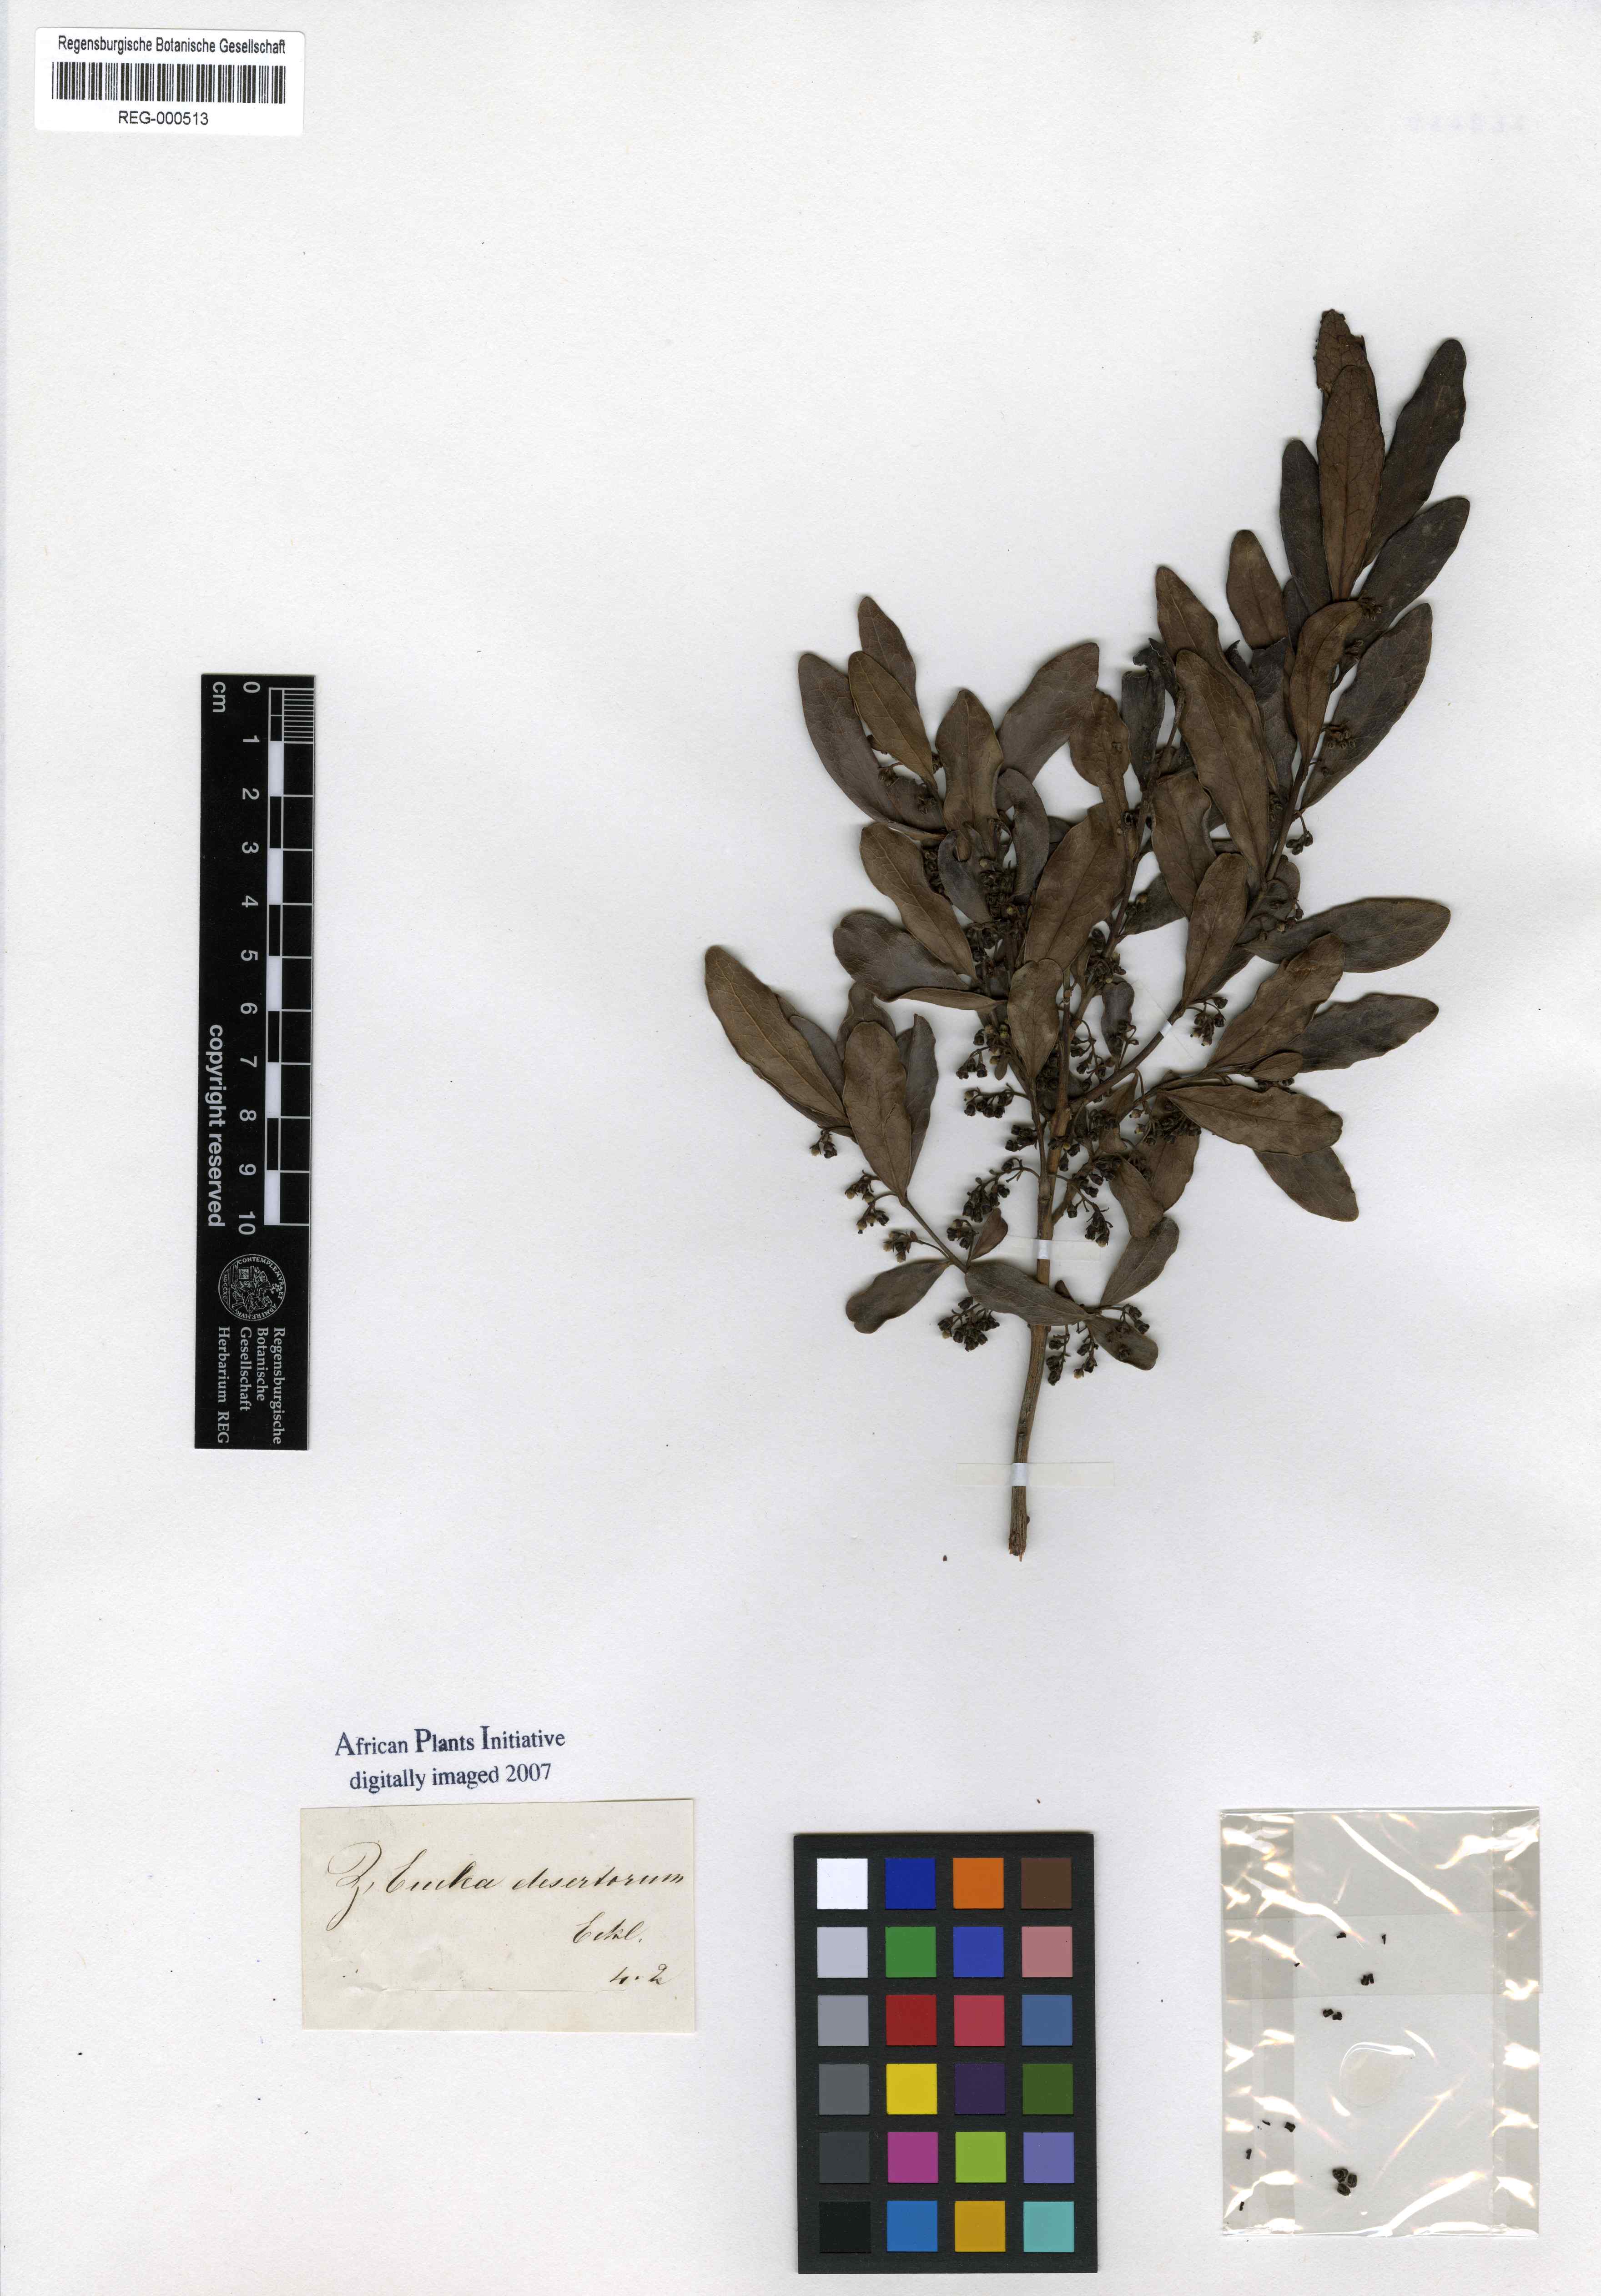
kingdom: Plantae
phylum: Tracheophyta
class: Magnoliopsida
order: Ericales
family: Ebenaceae
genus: Euclea
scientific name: Euclea crispa
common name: Blue guarri
